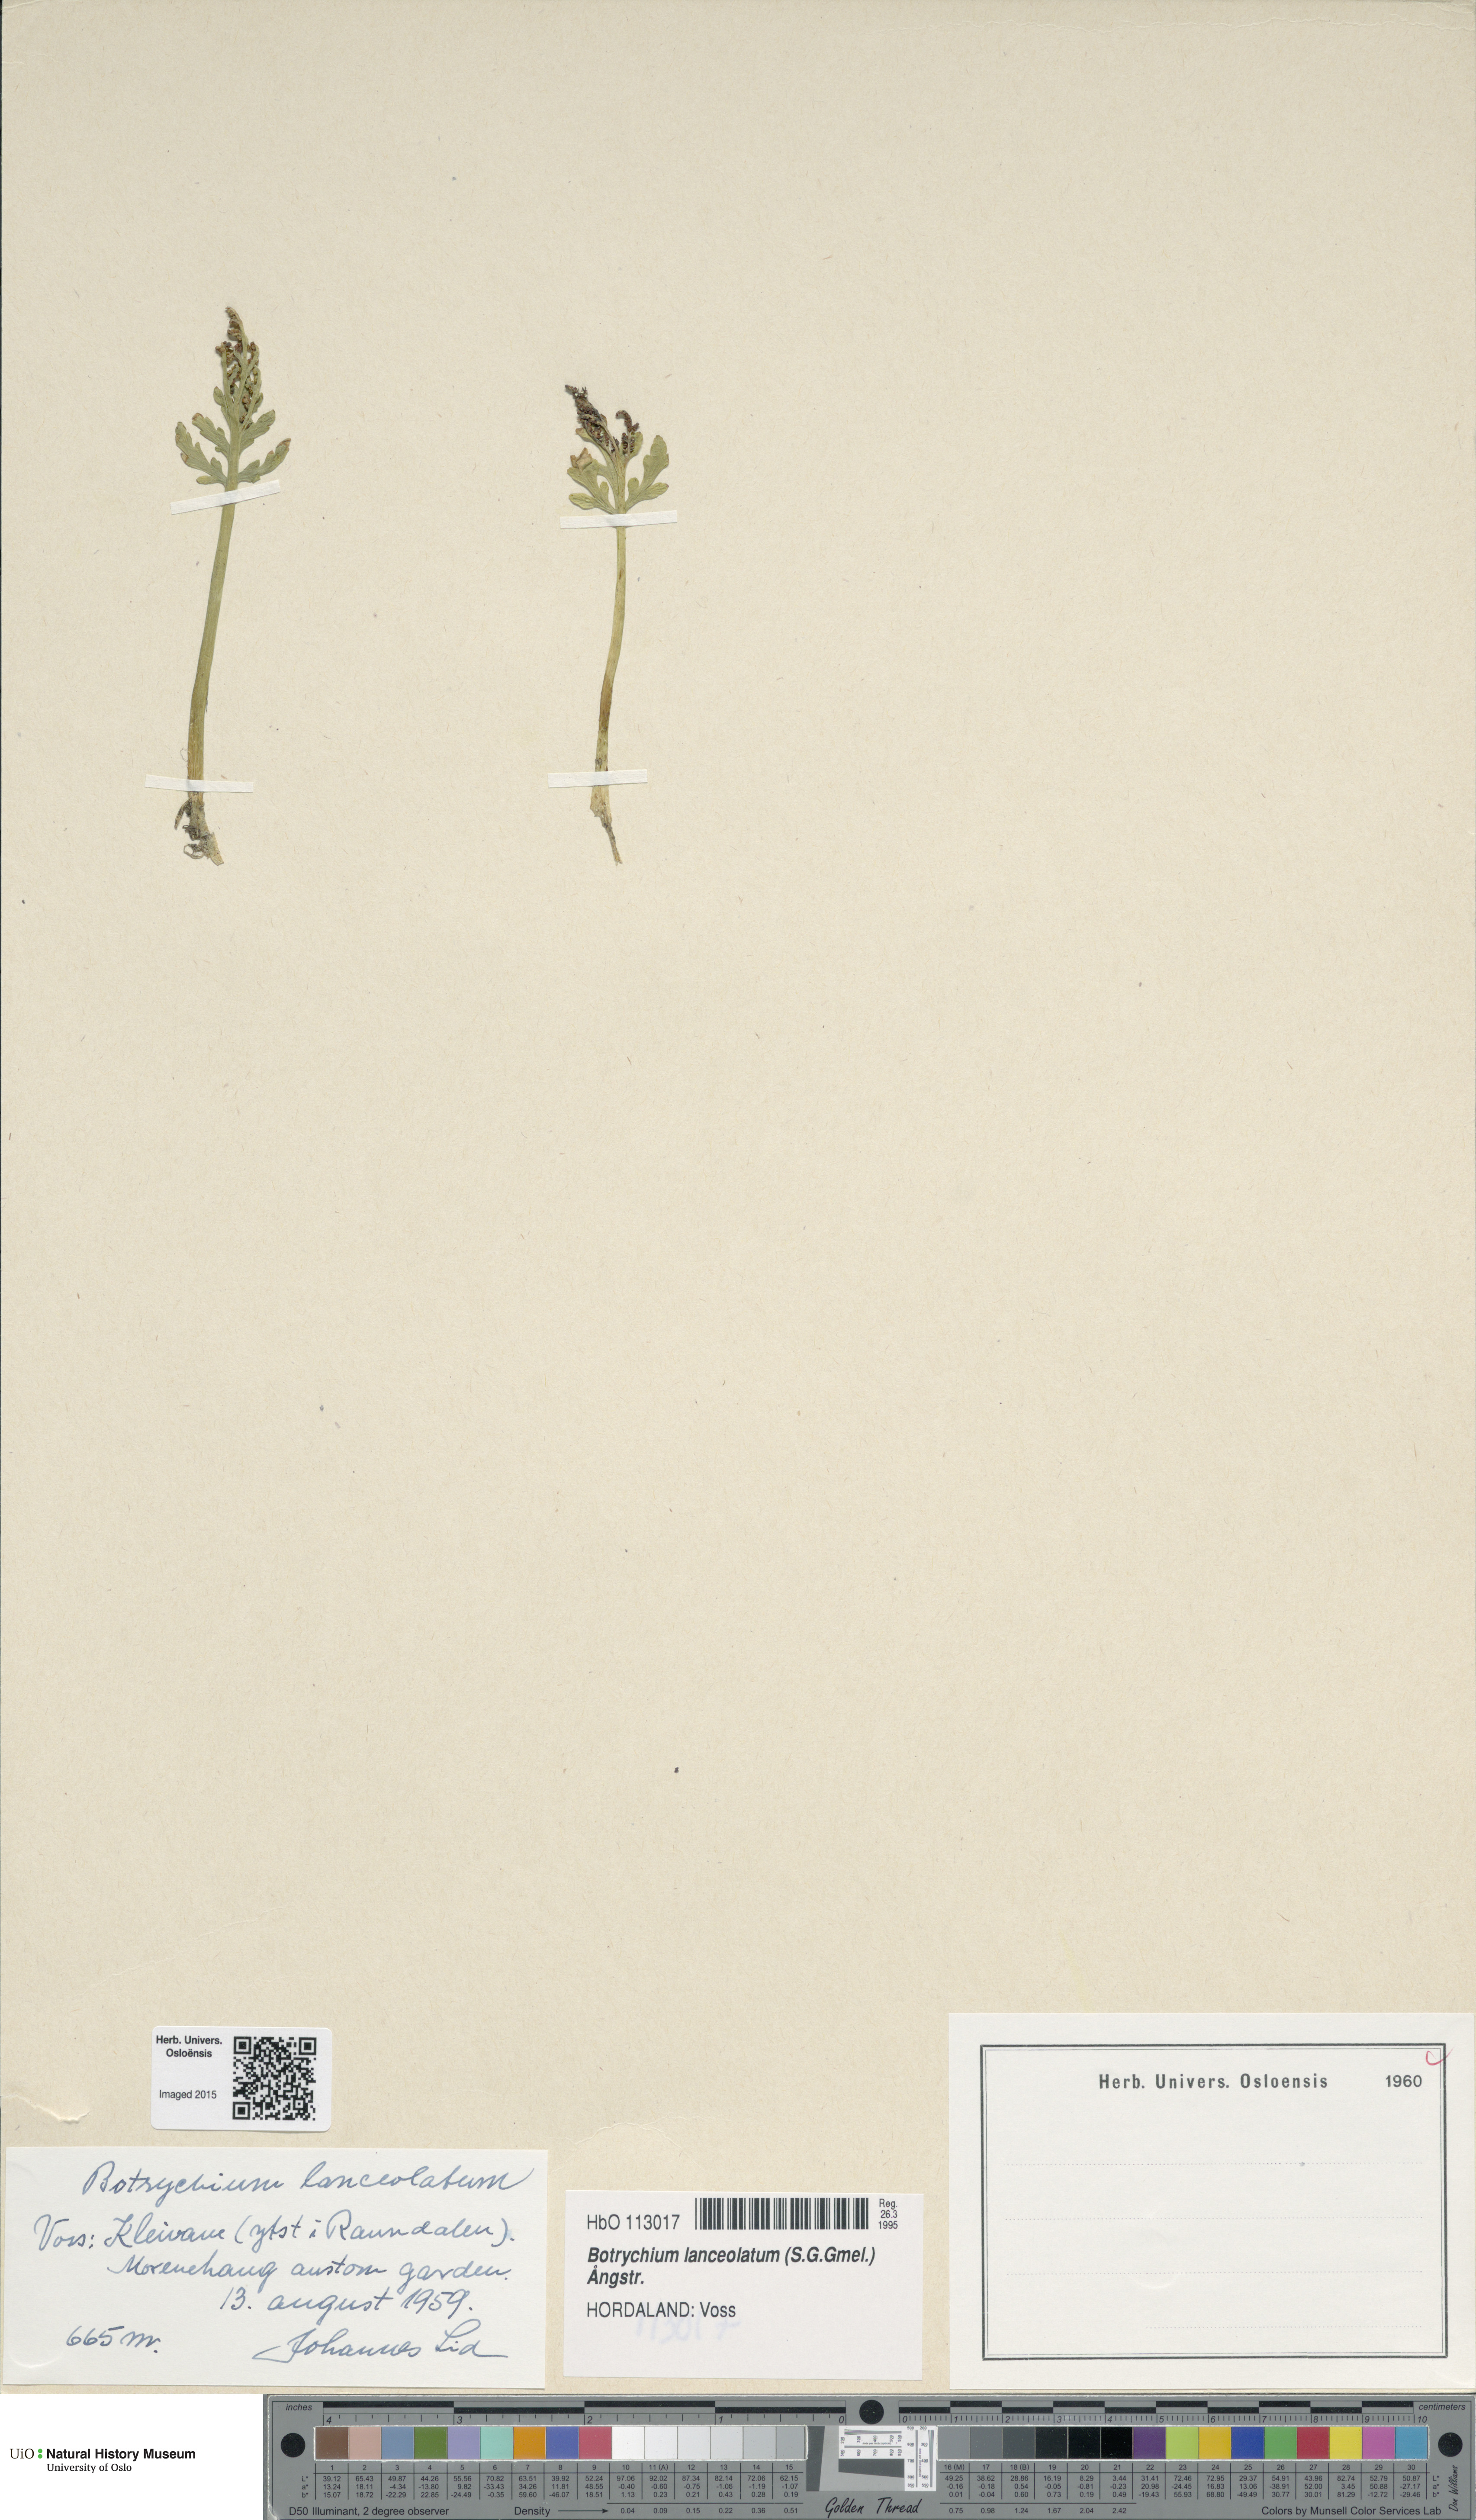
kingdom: Plantae
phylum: Tracheophyta
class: Polypodiopsida
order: Ophioglossales
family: Ophioglossaceae
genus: Botrychium
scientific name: Botrychium lanceolatum
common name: Lance-leaved moonwort
